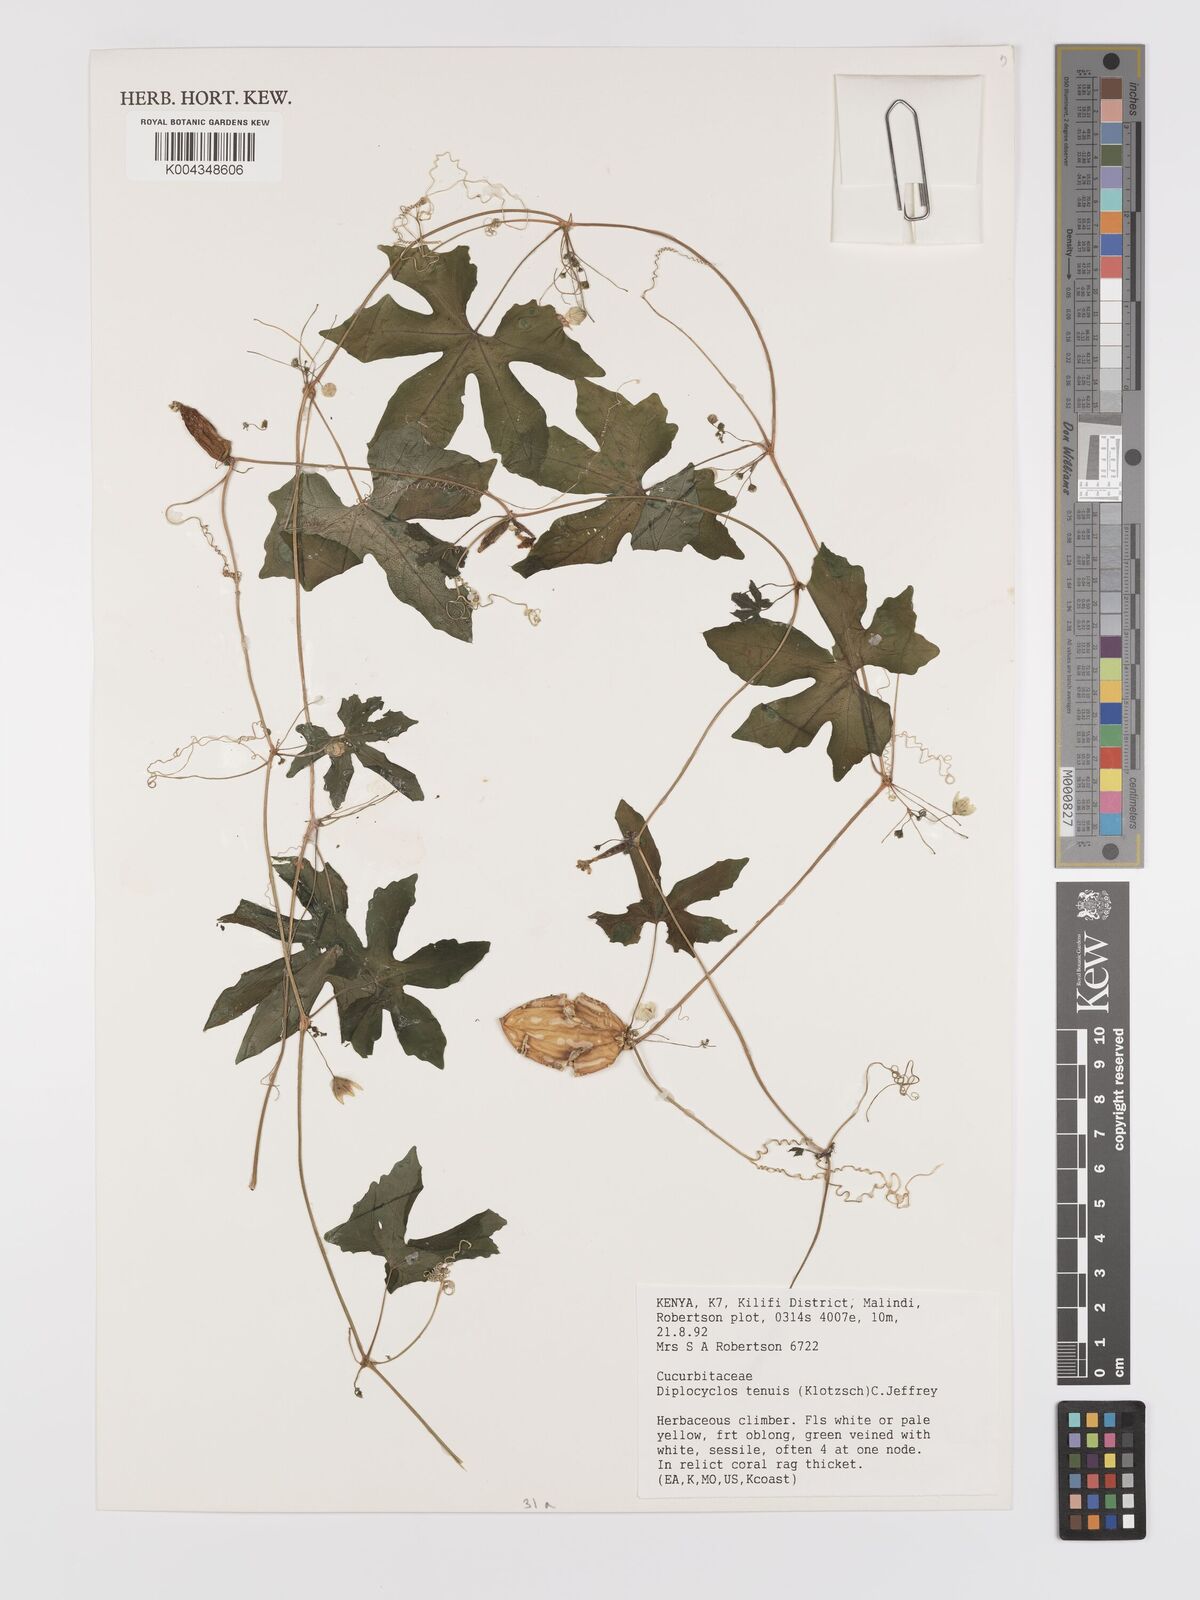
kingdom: Plantae
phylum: Tracheophyta
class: Magnoliopsida
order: Cucurbitales
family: Cucurbitaceae
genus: Diplocyclos
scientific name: Diplocyclos tenuis
